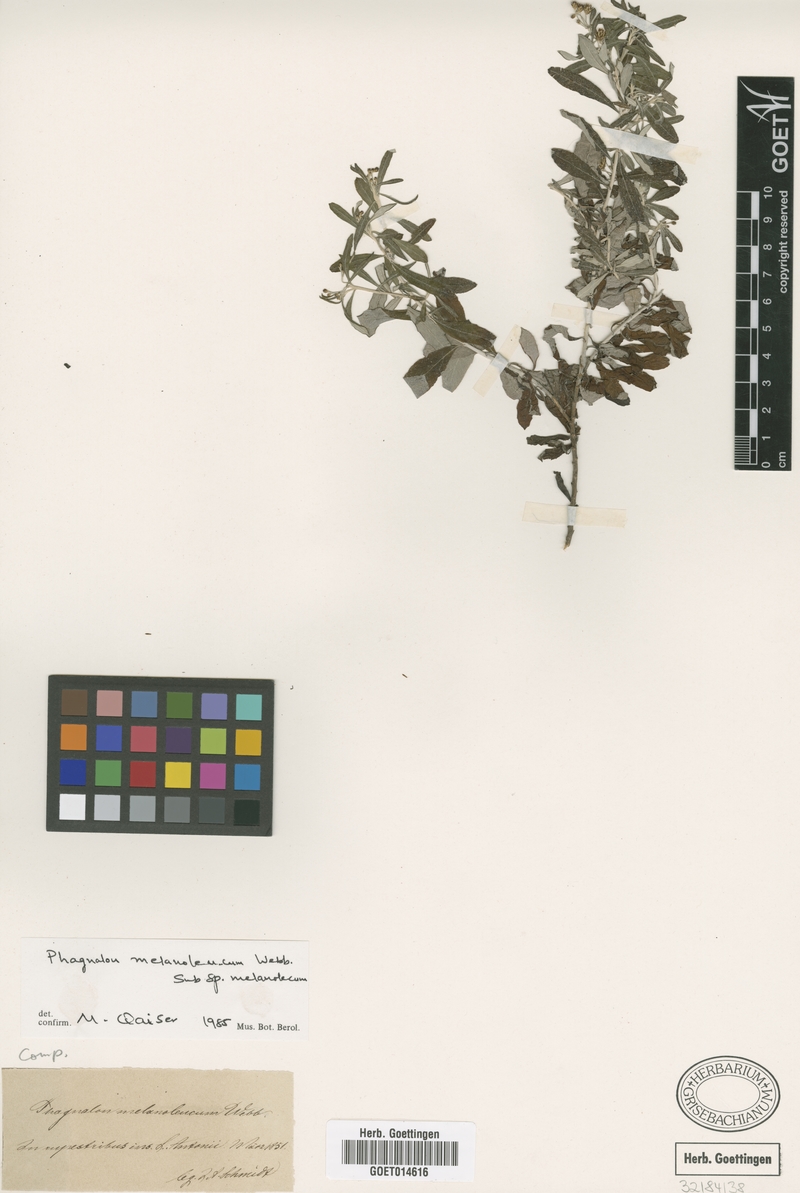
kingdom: Plantae
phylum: Tracheophyta
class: Magnoliopsida
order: Asterales
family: Asteraceae
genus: Phagnalon
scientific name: Phagnalon melanoleucum
